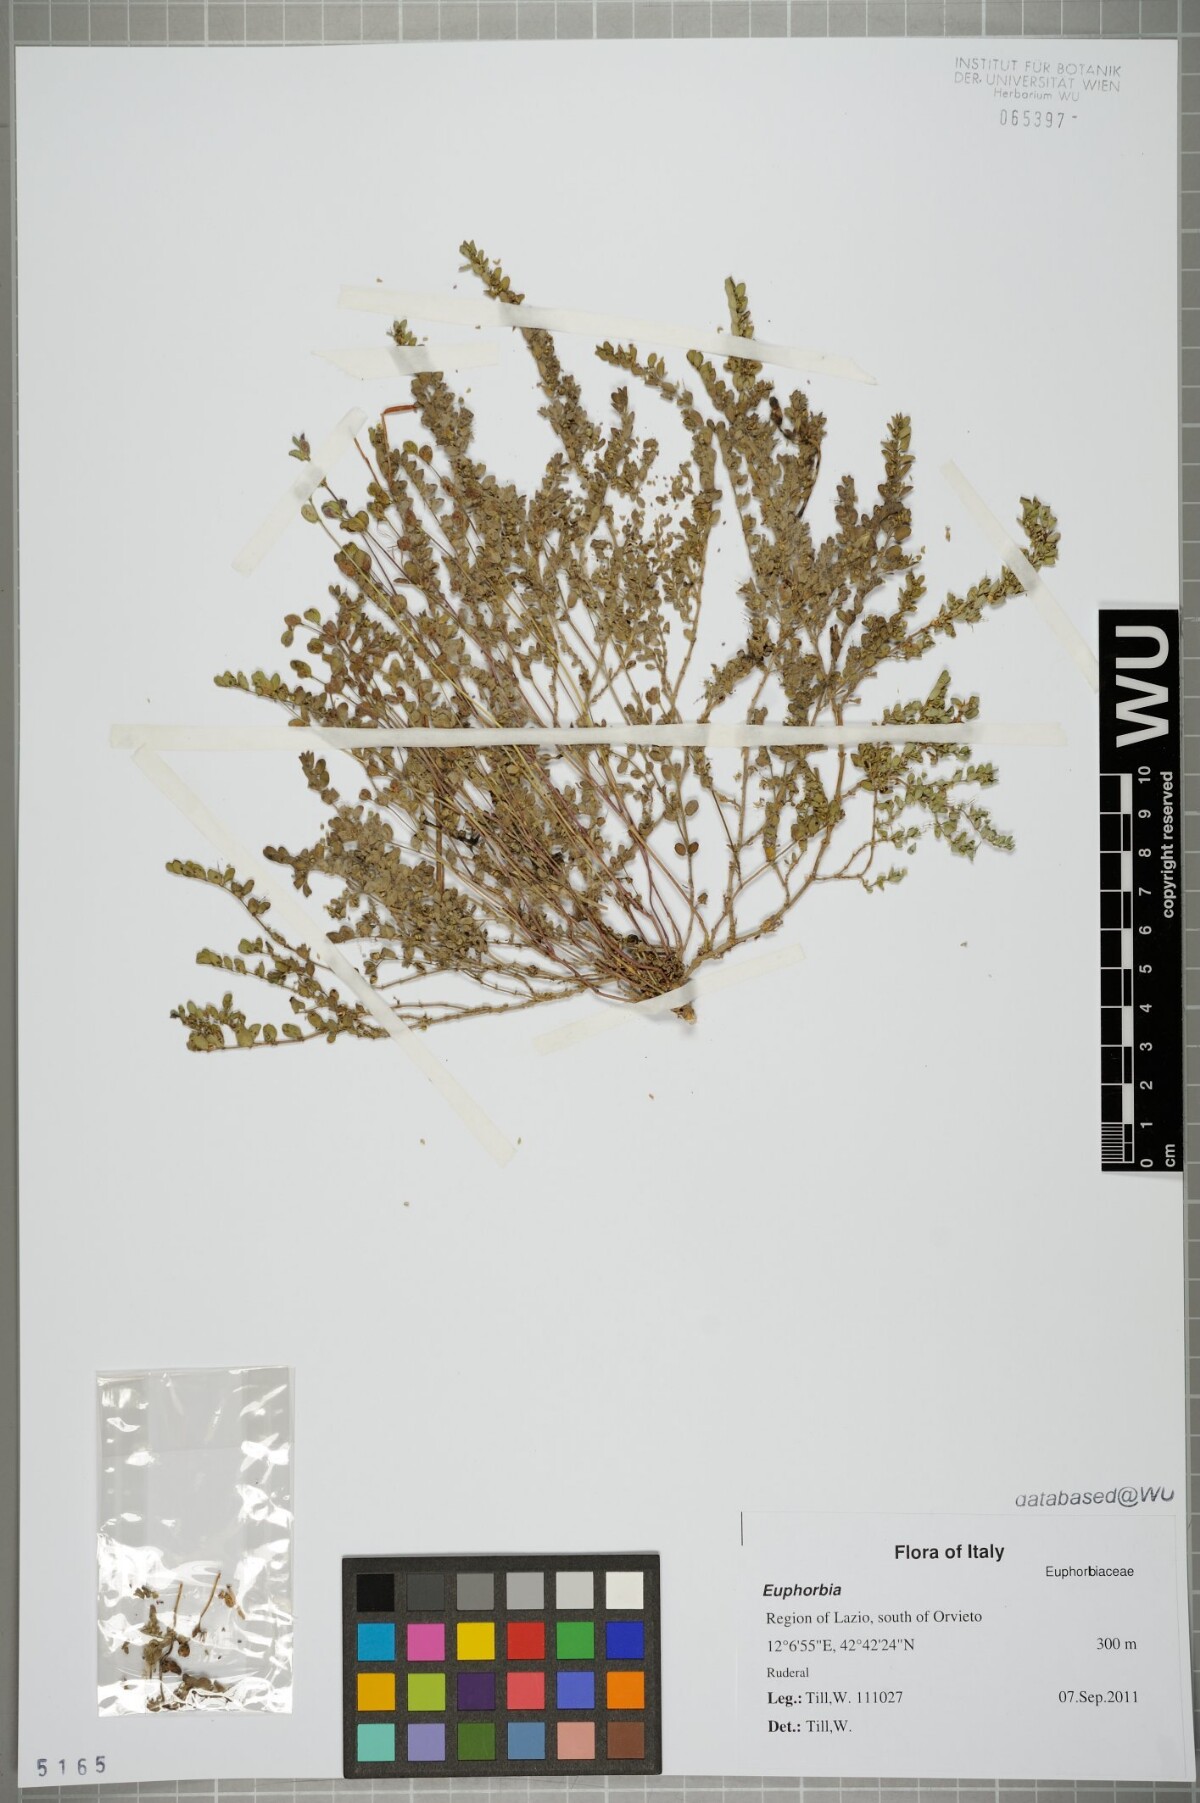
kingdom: Plantae
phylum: Tracheophyta
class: Magnoliopsida
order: Malpighiales
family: Euphorbiaceae
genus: Euphorbia
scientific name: Euphorbia
